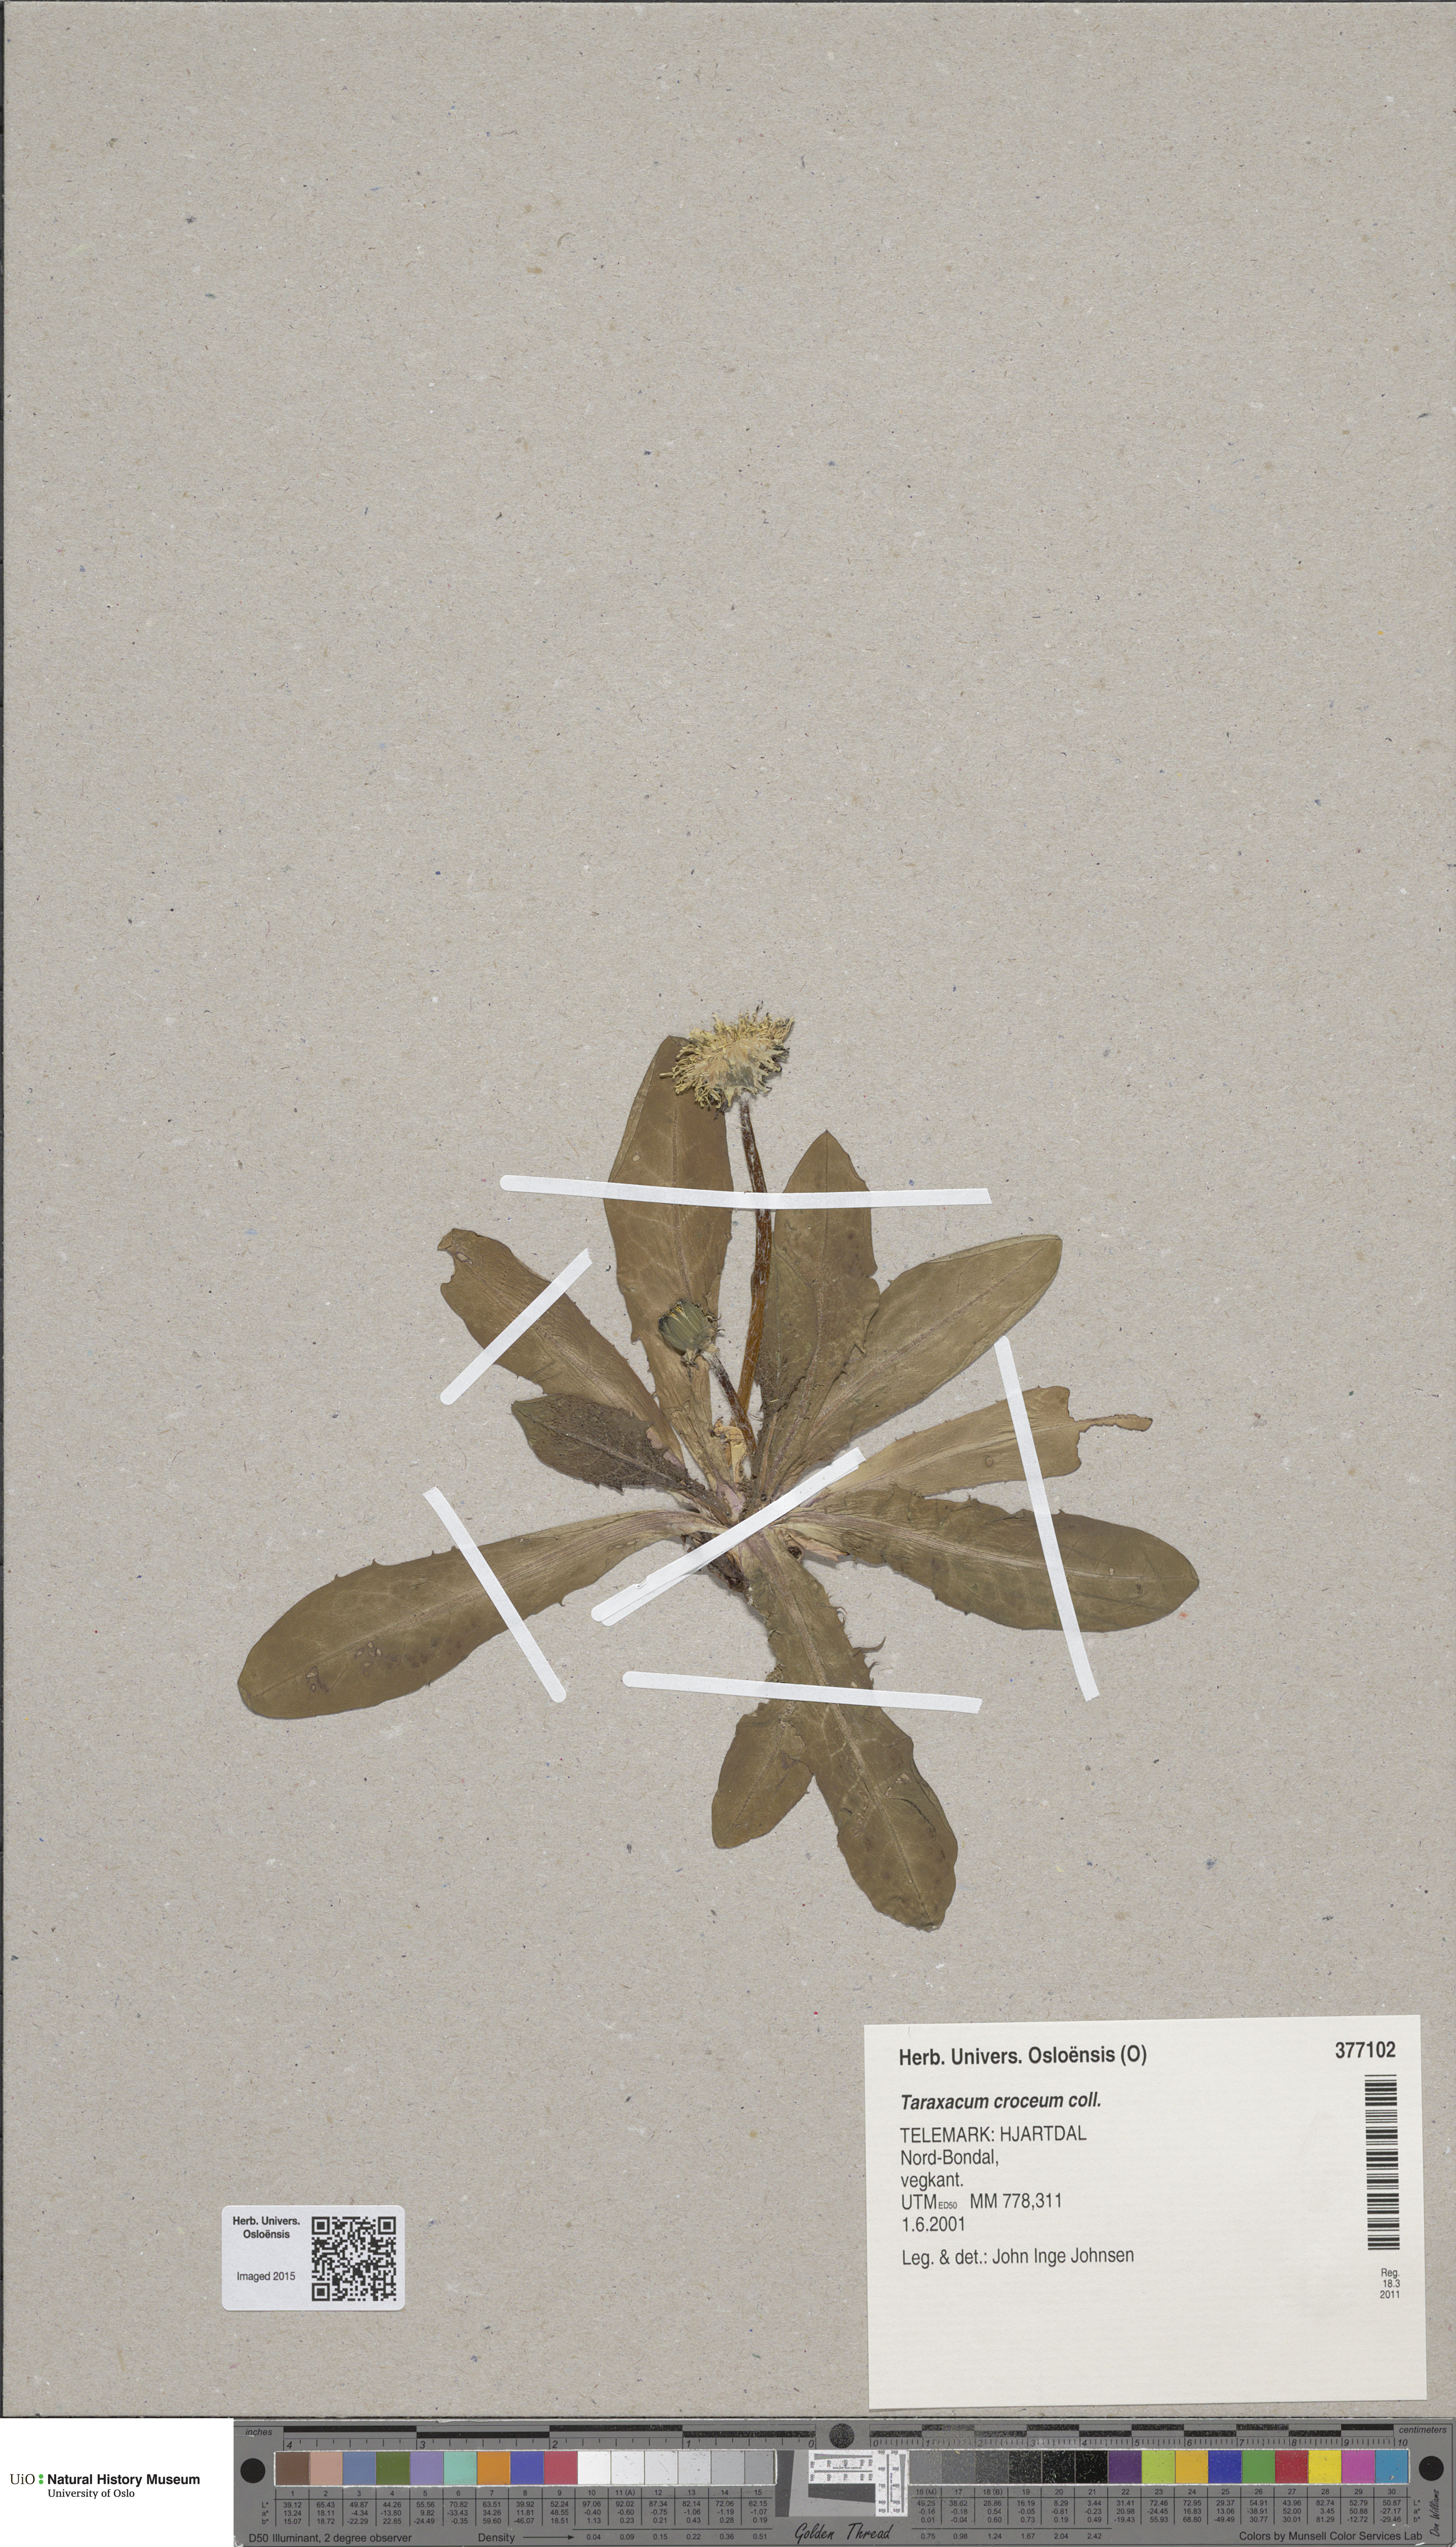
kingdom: Plantae
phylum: Tracheophyta
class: Magnoliopsida
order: Asterales
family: Asteraceae
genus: Taraxacum
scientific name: Taraxacum croceum
